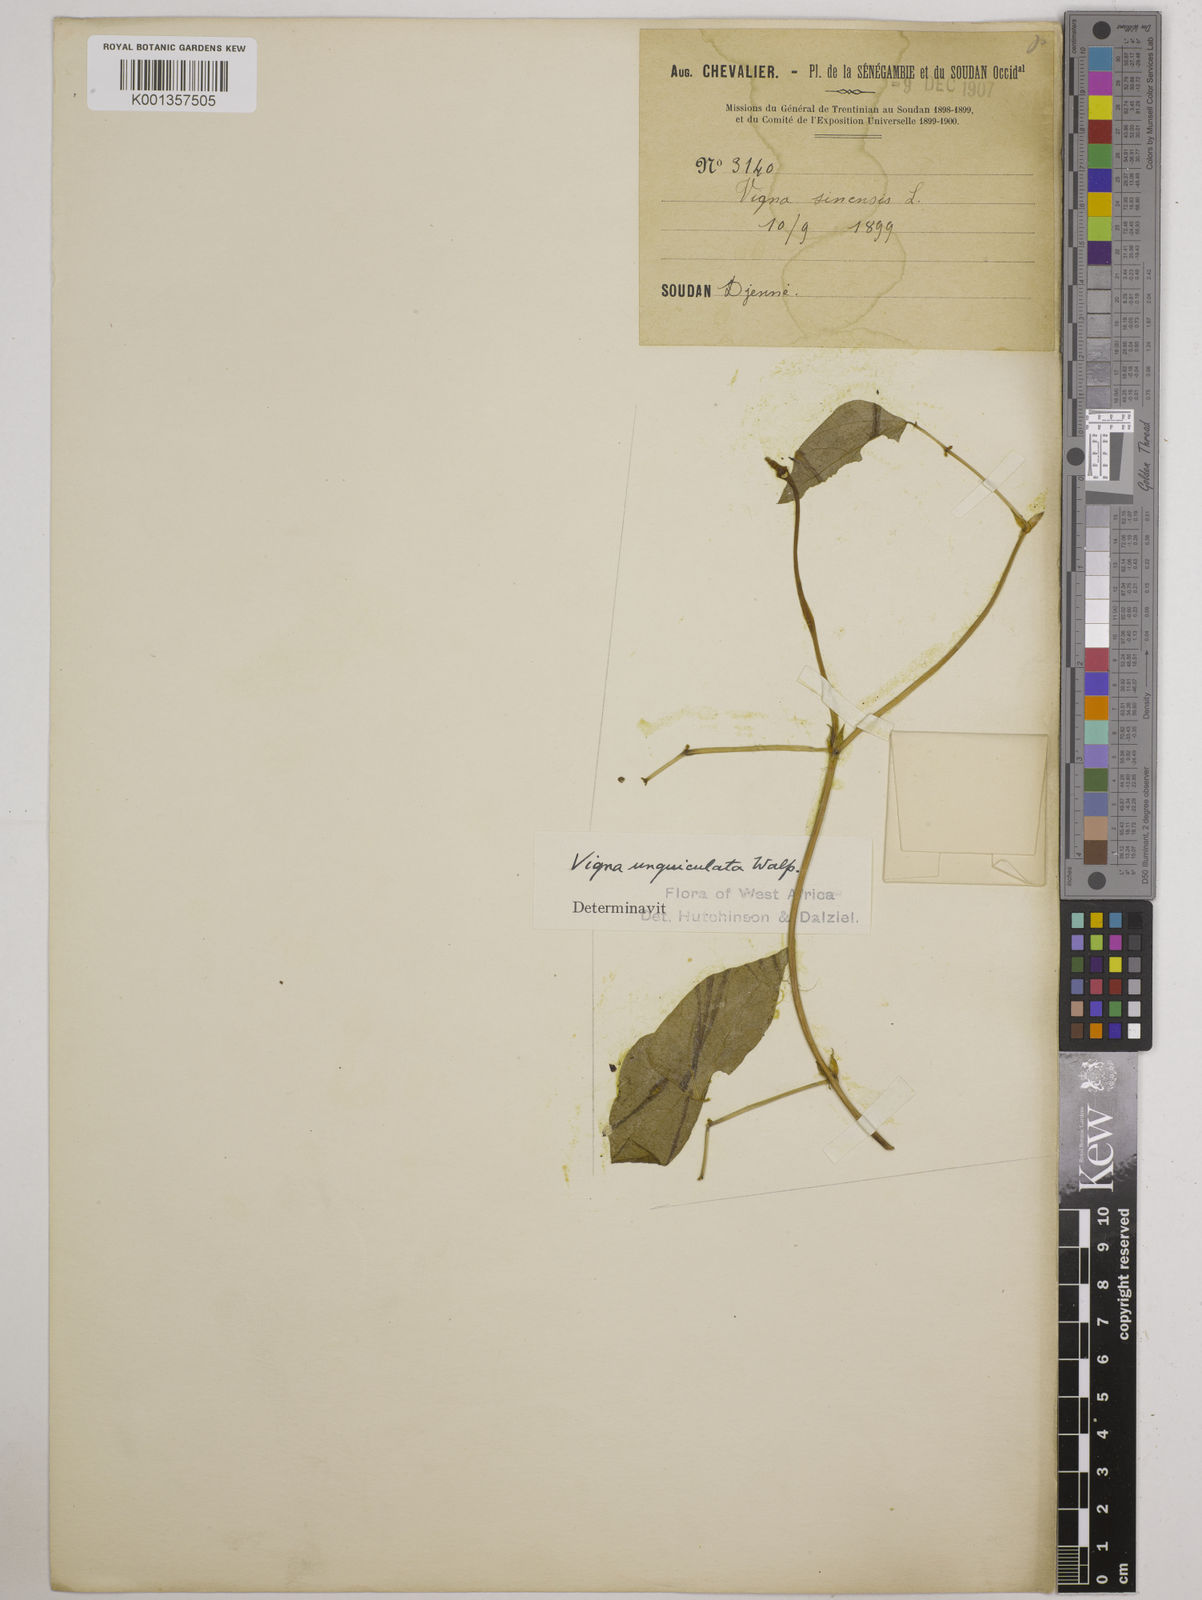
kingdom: Plantae
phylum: Tracheophyta
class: Magnoliopsida
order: Fabales
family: Fabaceae
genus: Vigna
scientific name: Vigna
